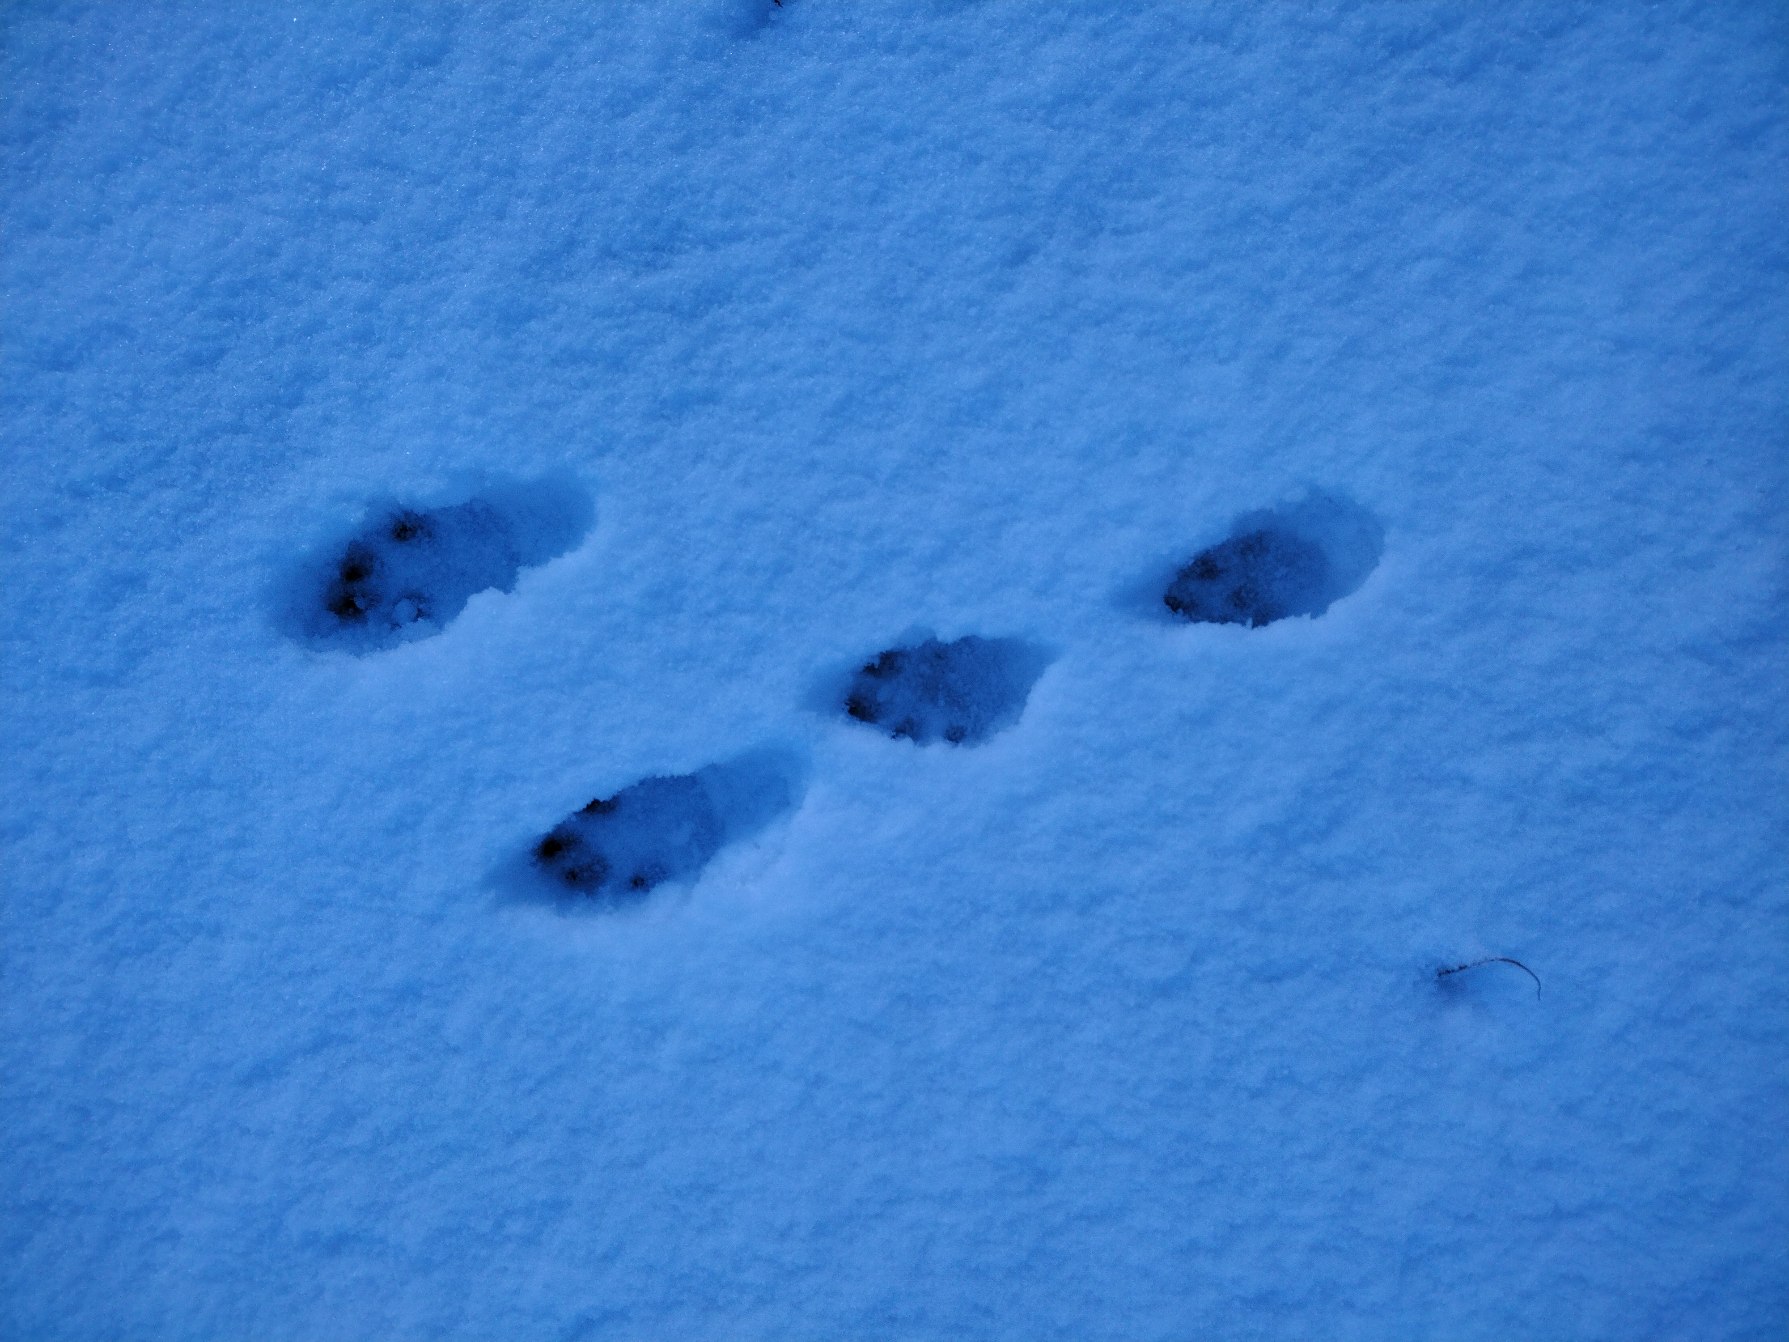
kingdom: Animalia
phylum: Chordata
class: Mammalia
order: Lagomorpha
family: Leporidae
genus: Lepus
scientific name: Lepus europaeus
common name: Hare
